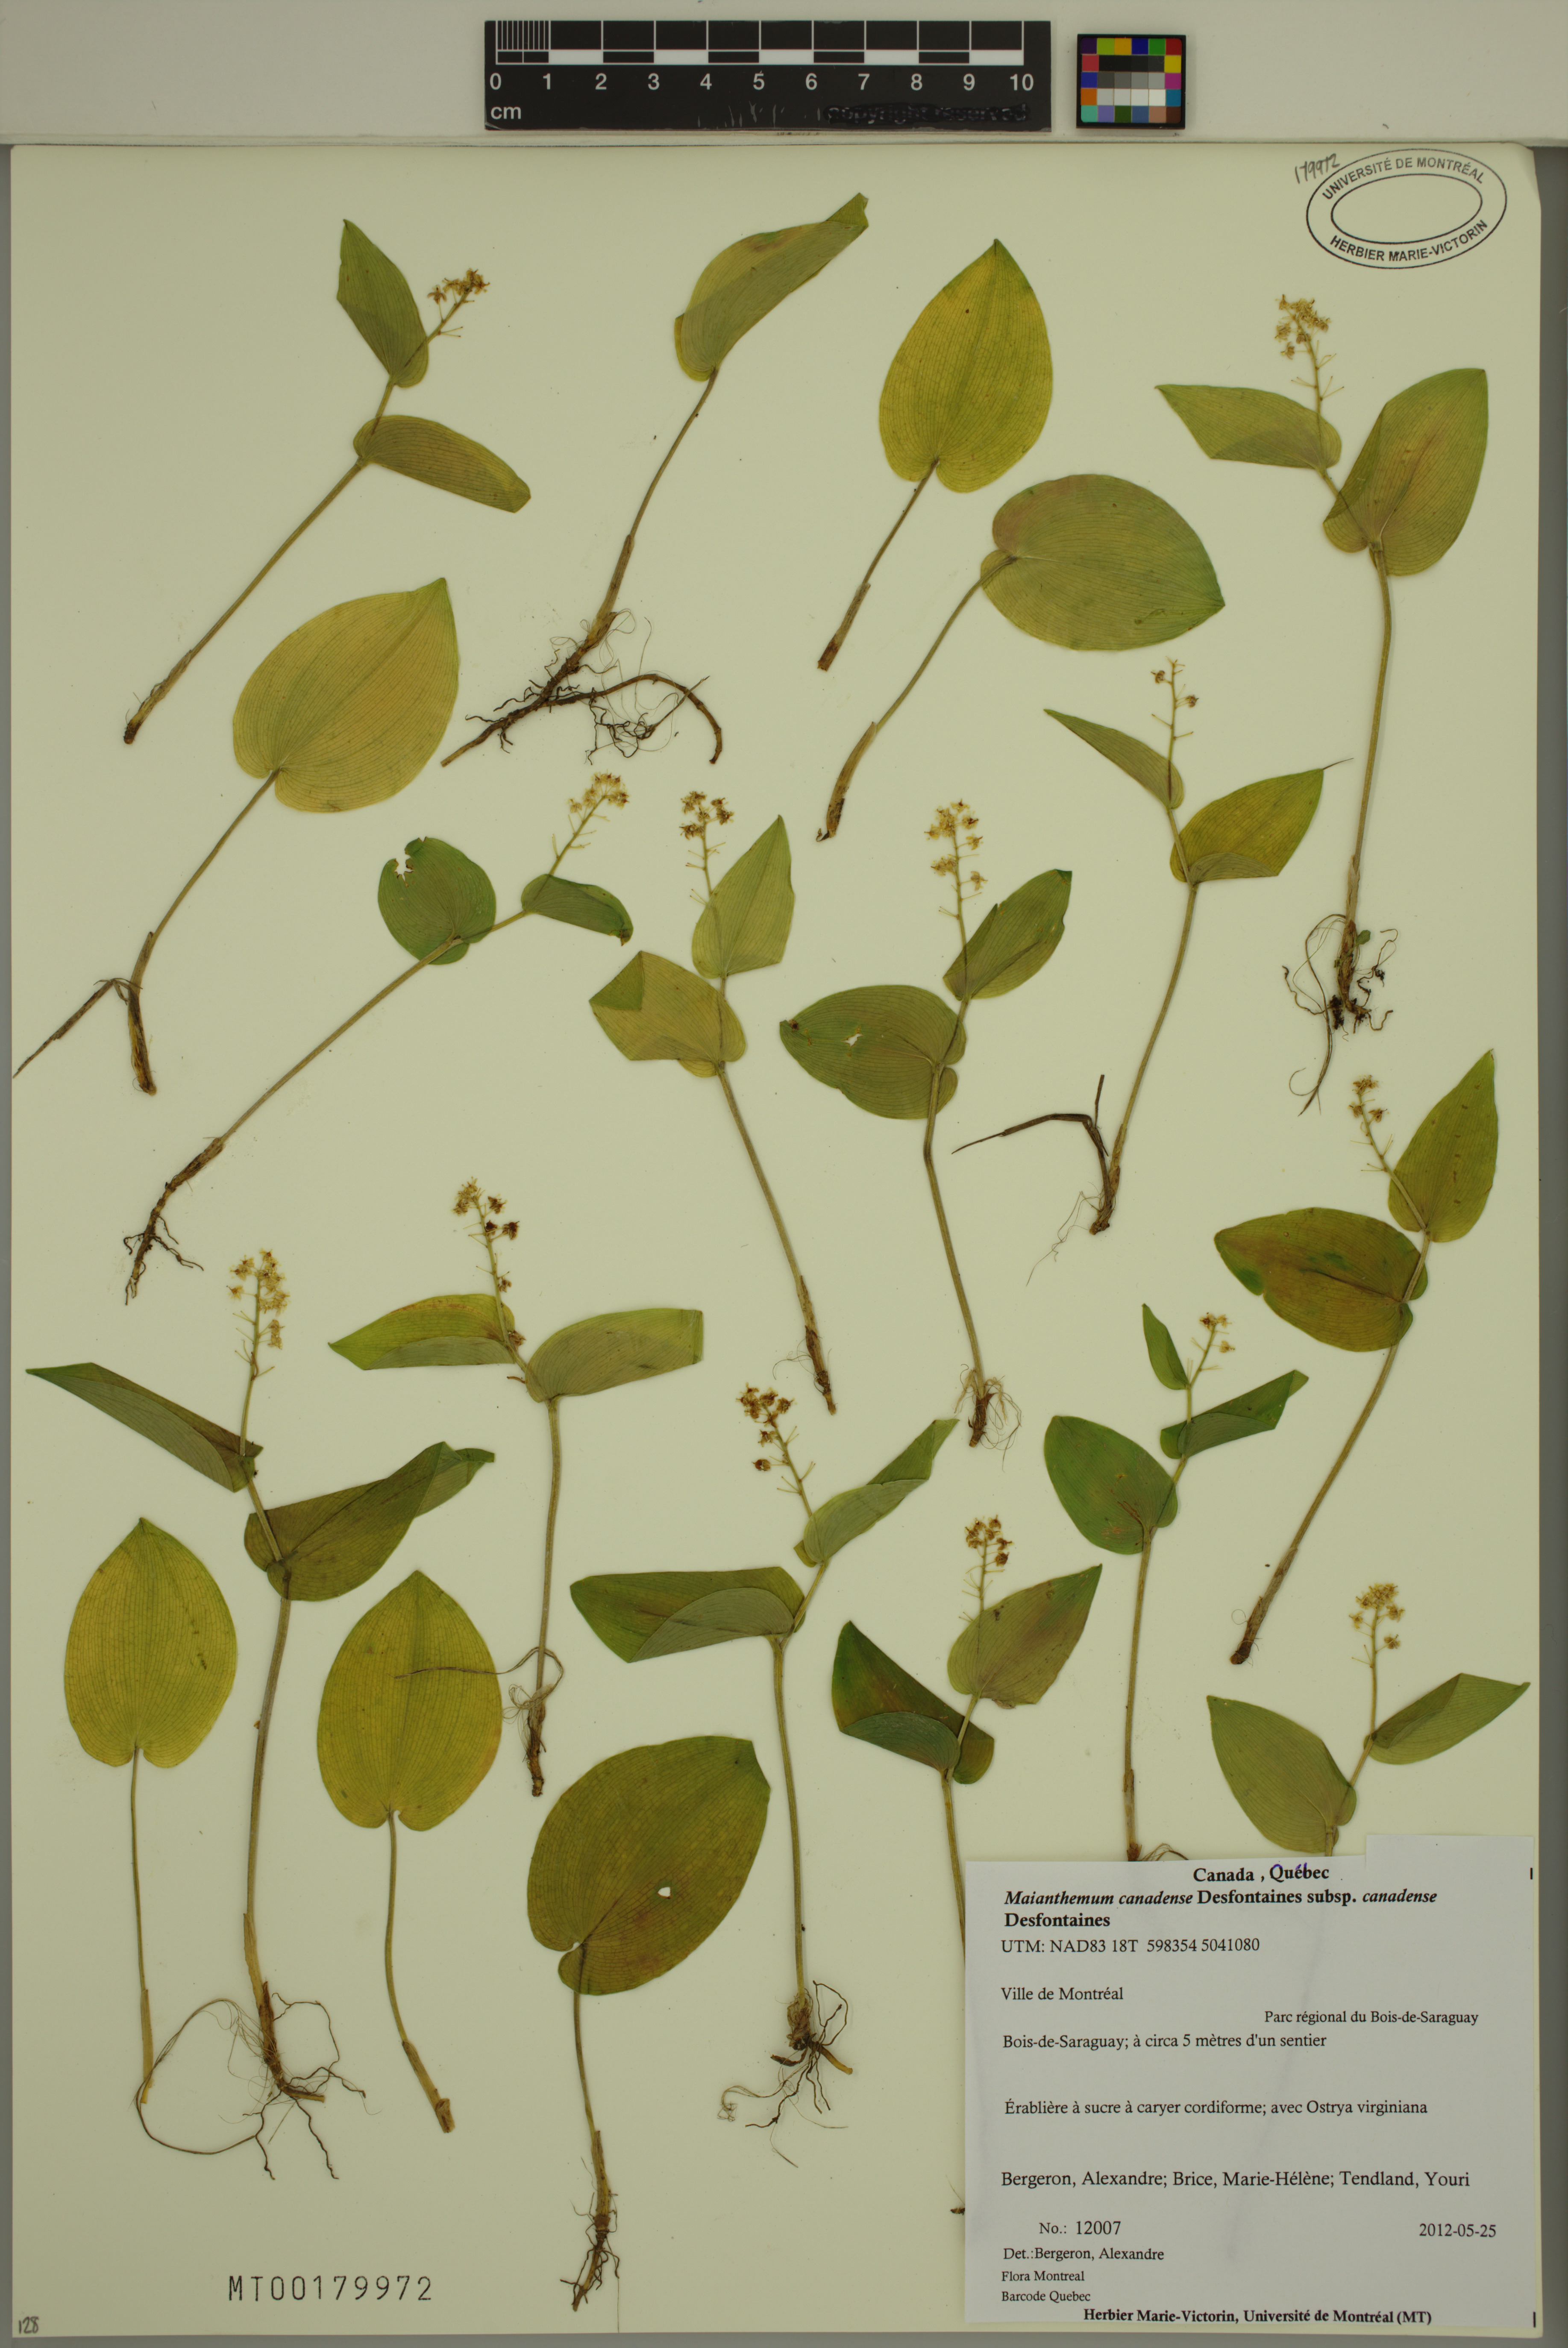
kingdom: Plantae
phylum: Tracheophyta
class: Liliopsida
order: Asparagales
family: Asparagaceae
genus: Maianthemum
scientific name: Maianthemum canadense
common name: False lily-of-the-valley
